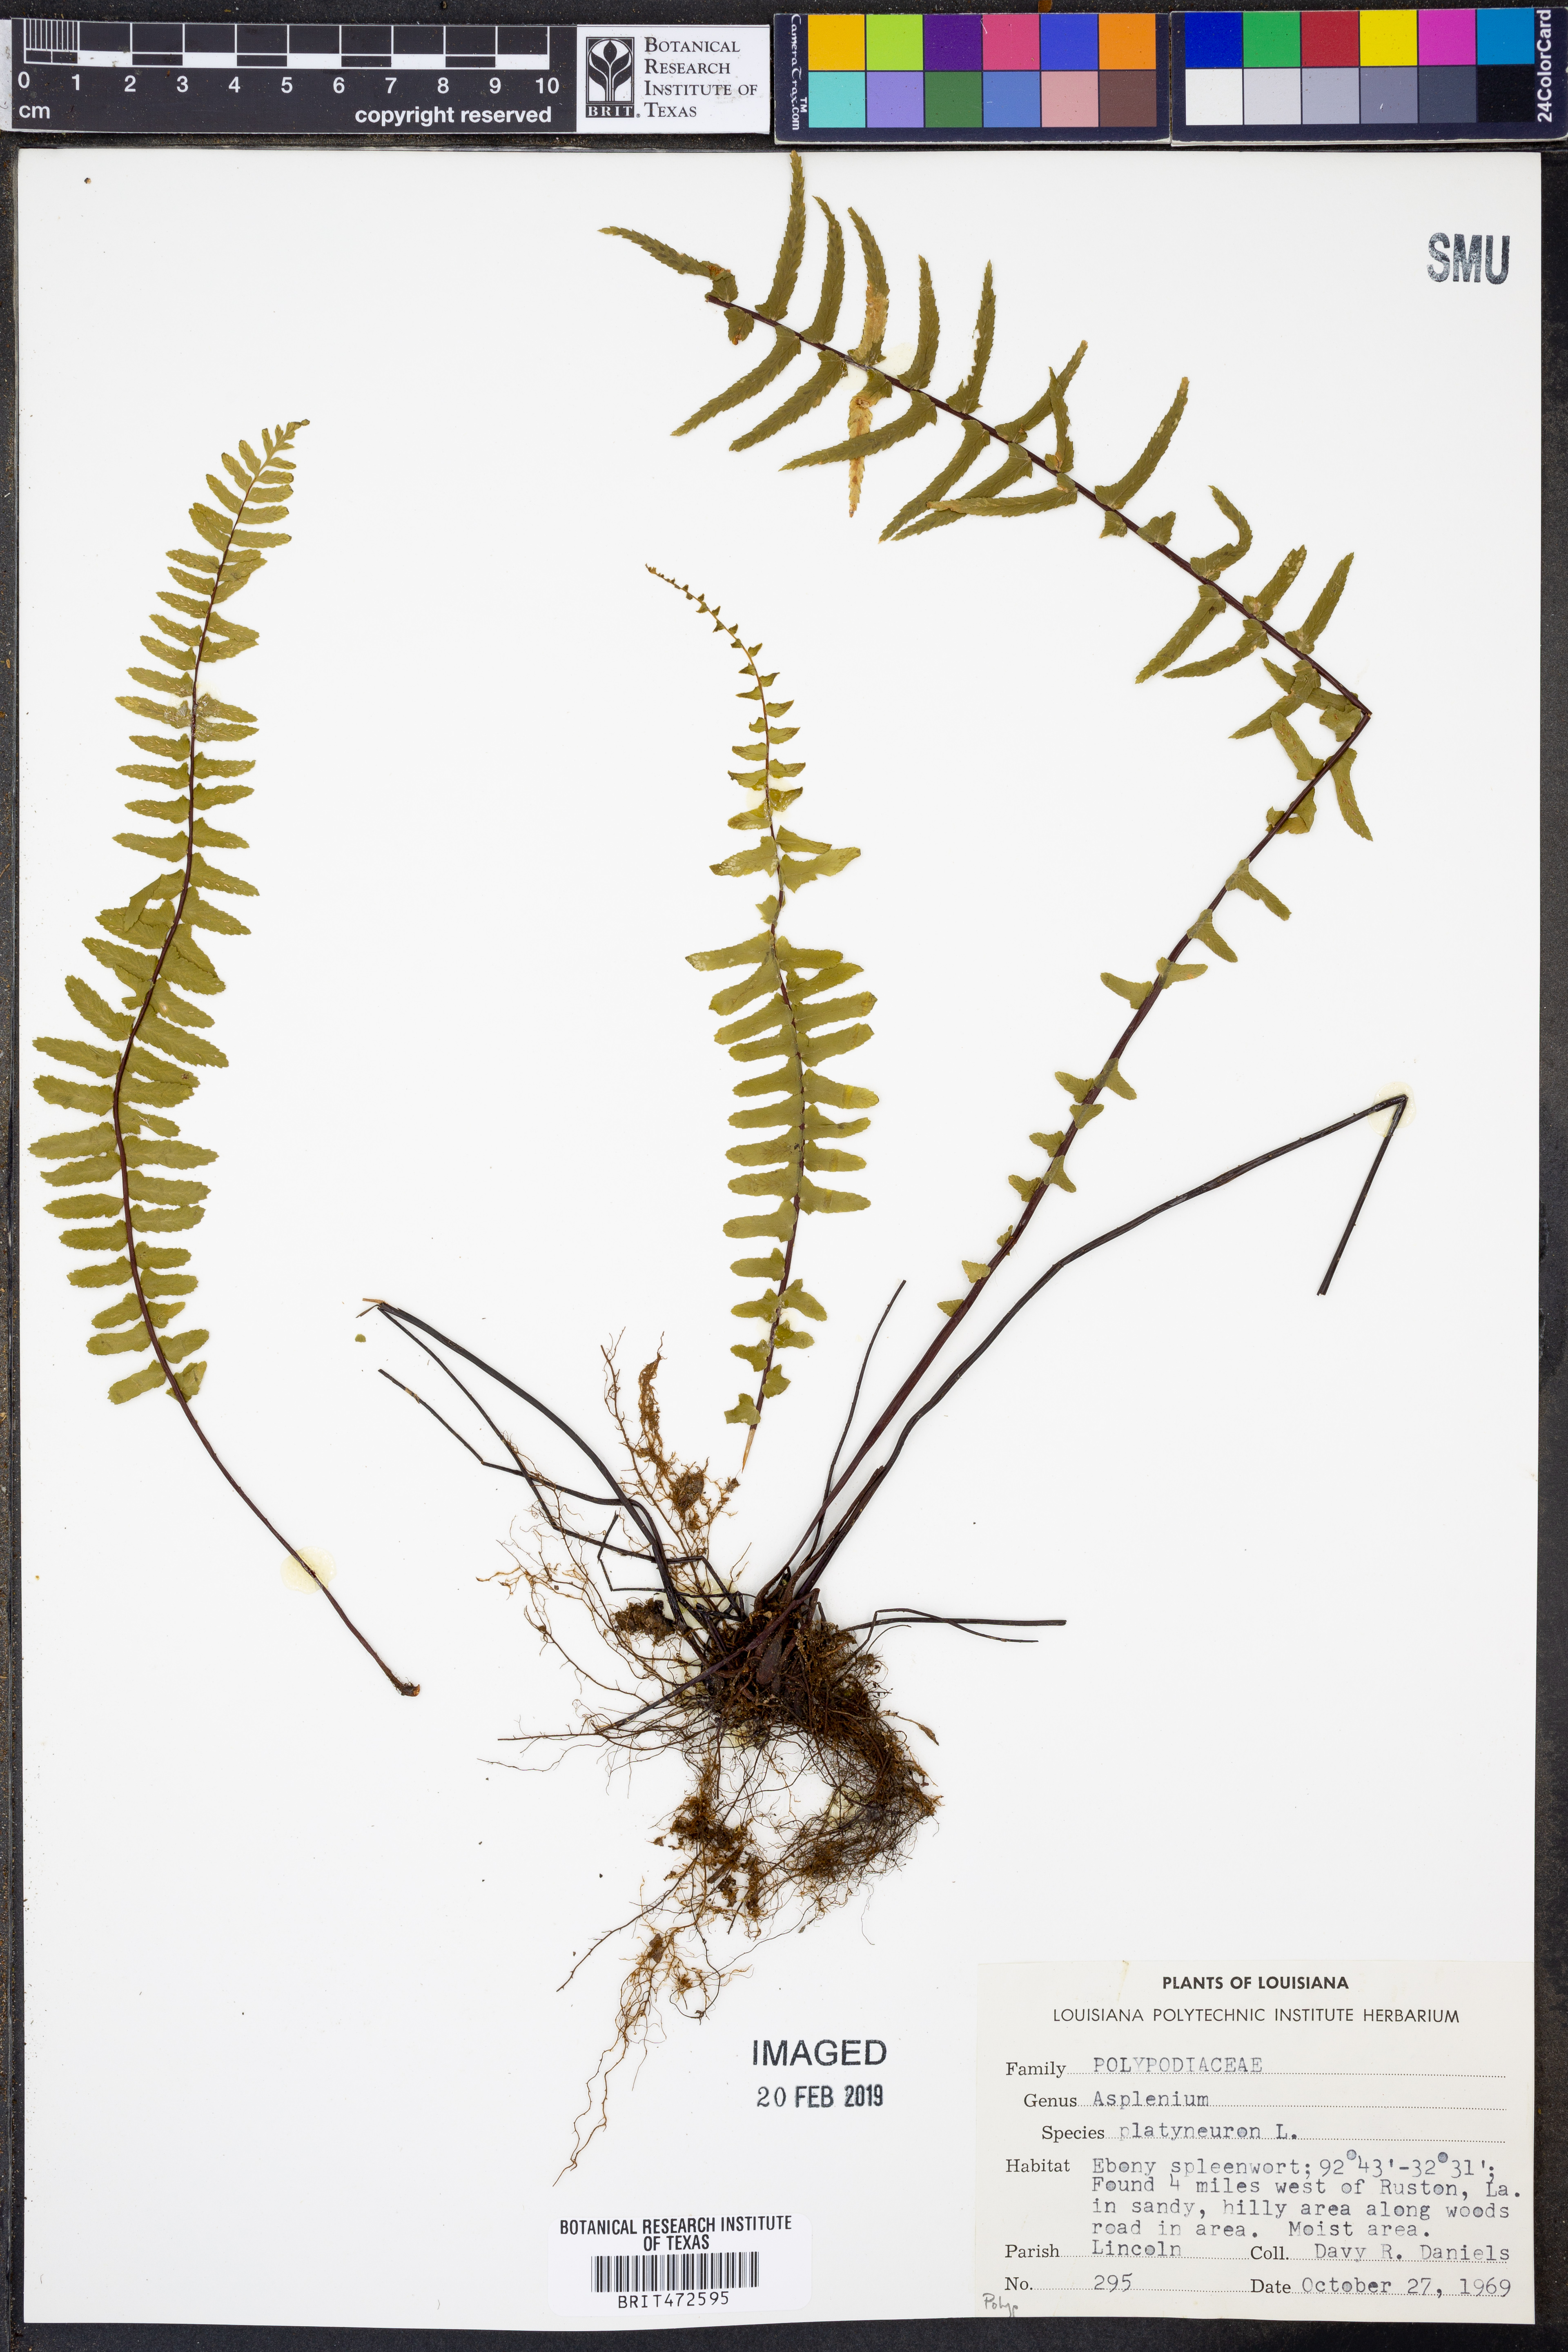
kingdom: Plantae
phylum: Tracheophyta
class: Polypodiopsida
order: Polypodiales
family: Aspleniaceae
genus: Asplenium
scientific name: Asplenium platyneuron
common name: Ebony spleenwort
